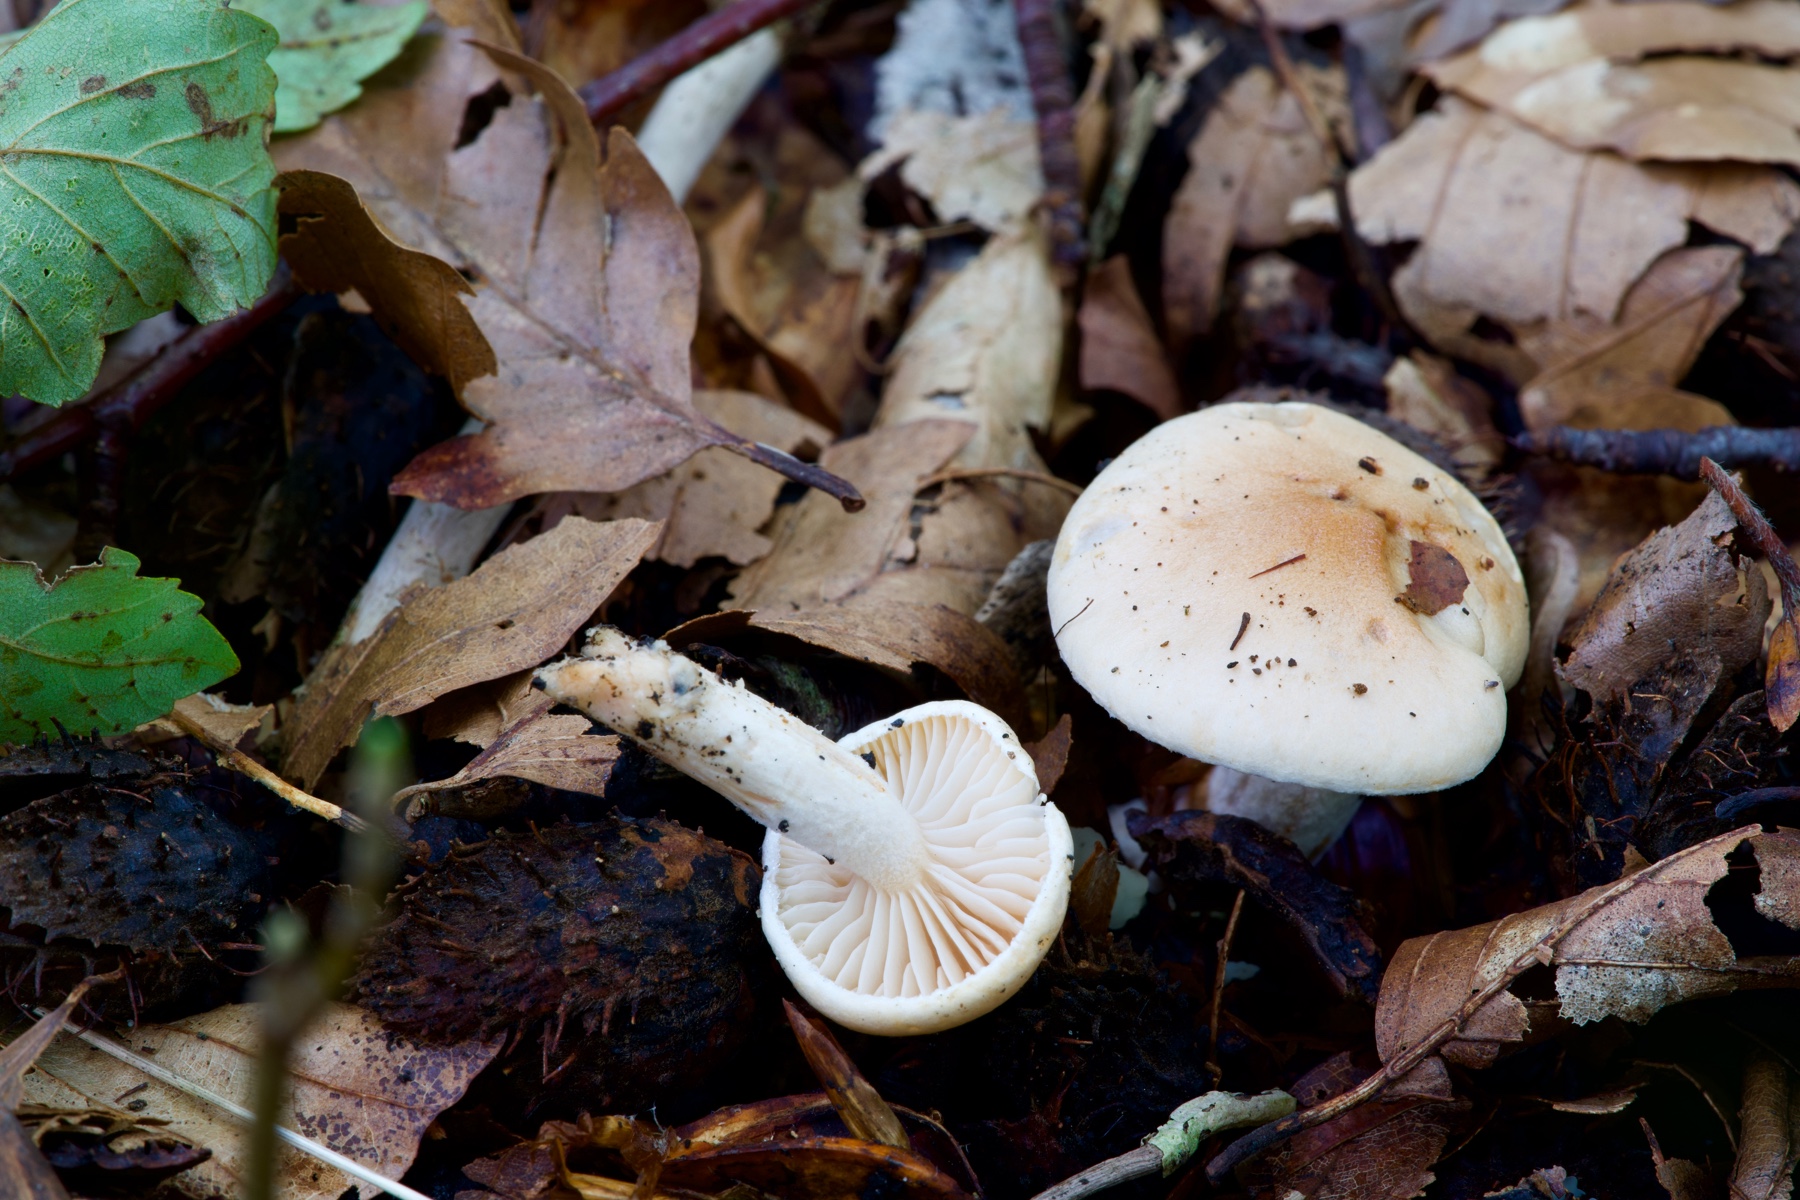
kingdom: Fungi
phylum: Basidiomycota
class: Agaricomycetes
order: Agaricales
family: Hygrophoraceae
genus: Hygrophorus
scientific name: Hygrophorus unicolor
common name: orangeøjet sneglehat
